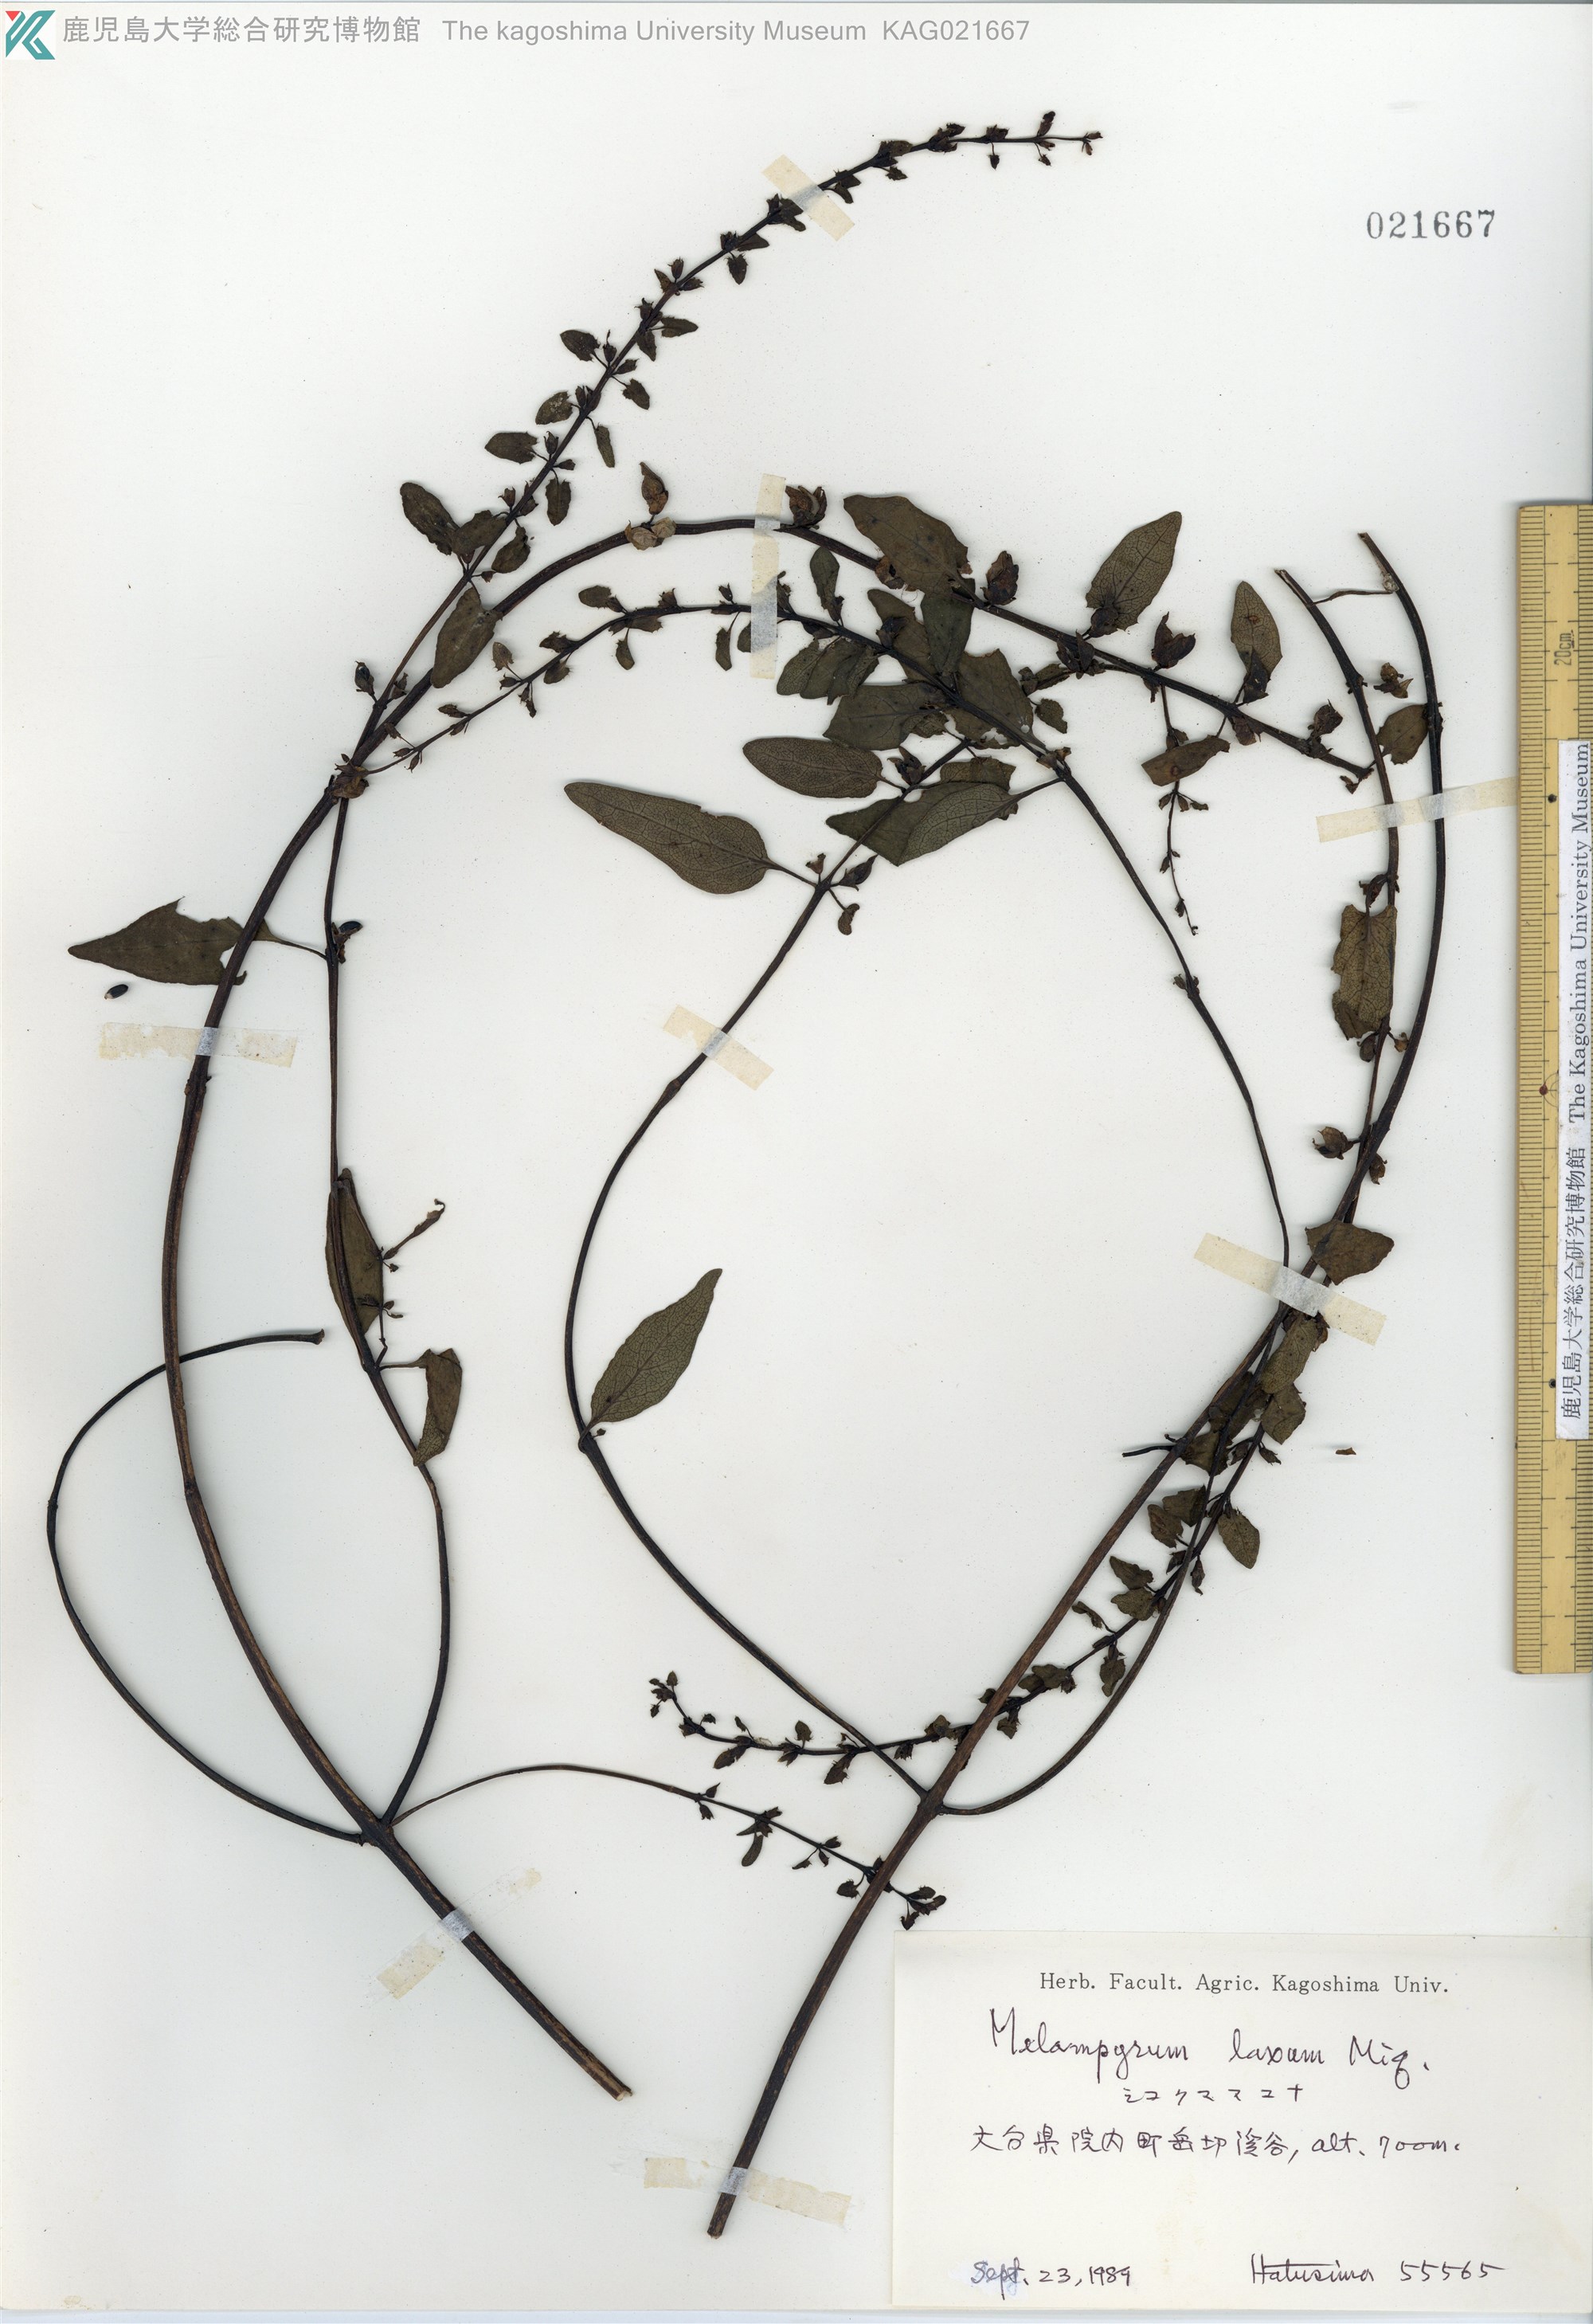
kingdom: Plantae
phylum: Tracheophyta
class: Magnoliopsida
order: Lamiales
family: Orobanchaceae
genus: Melampyrum
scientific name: Melampyrum laxum
